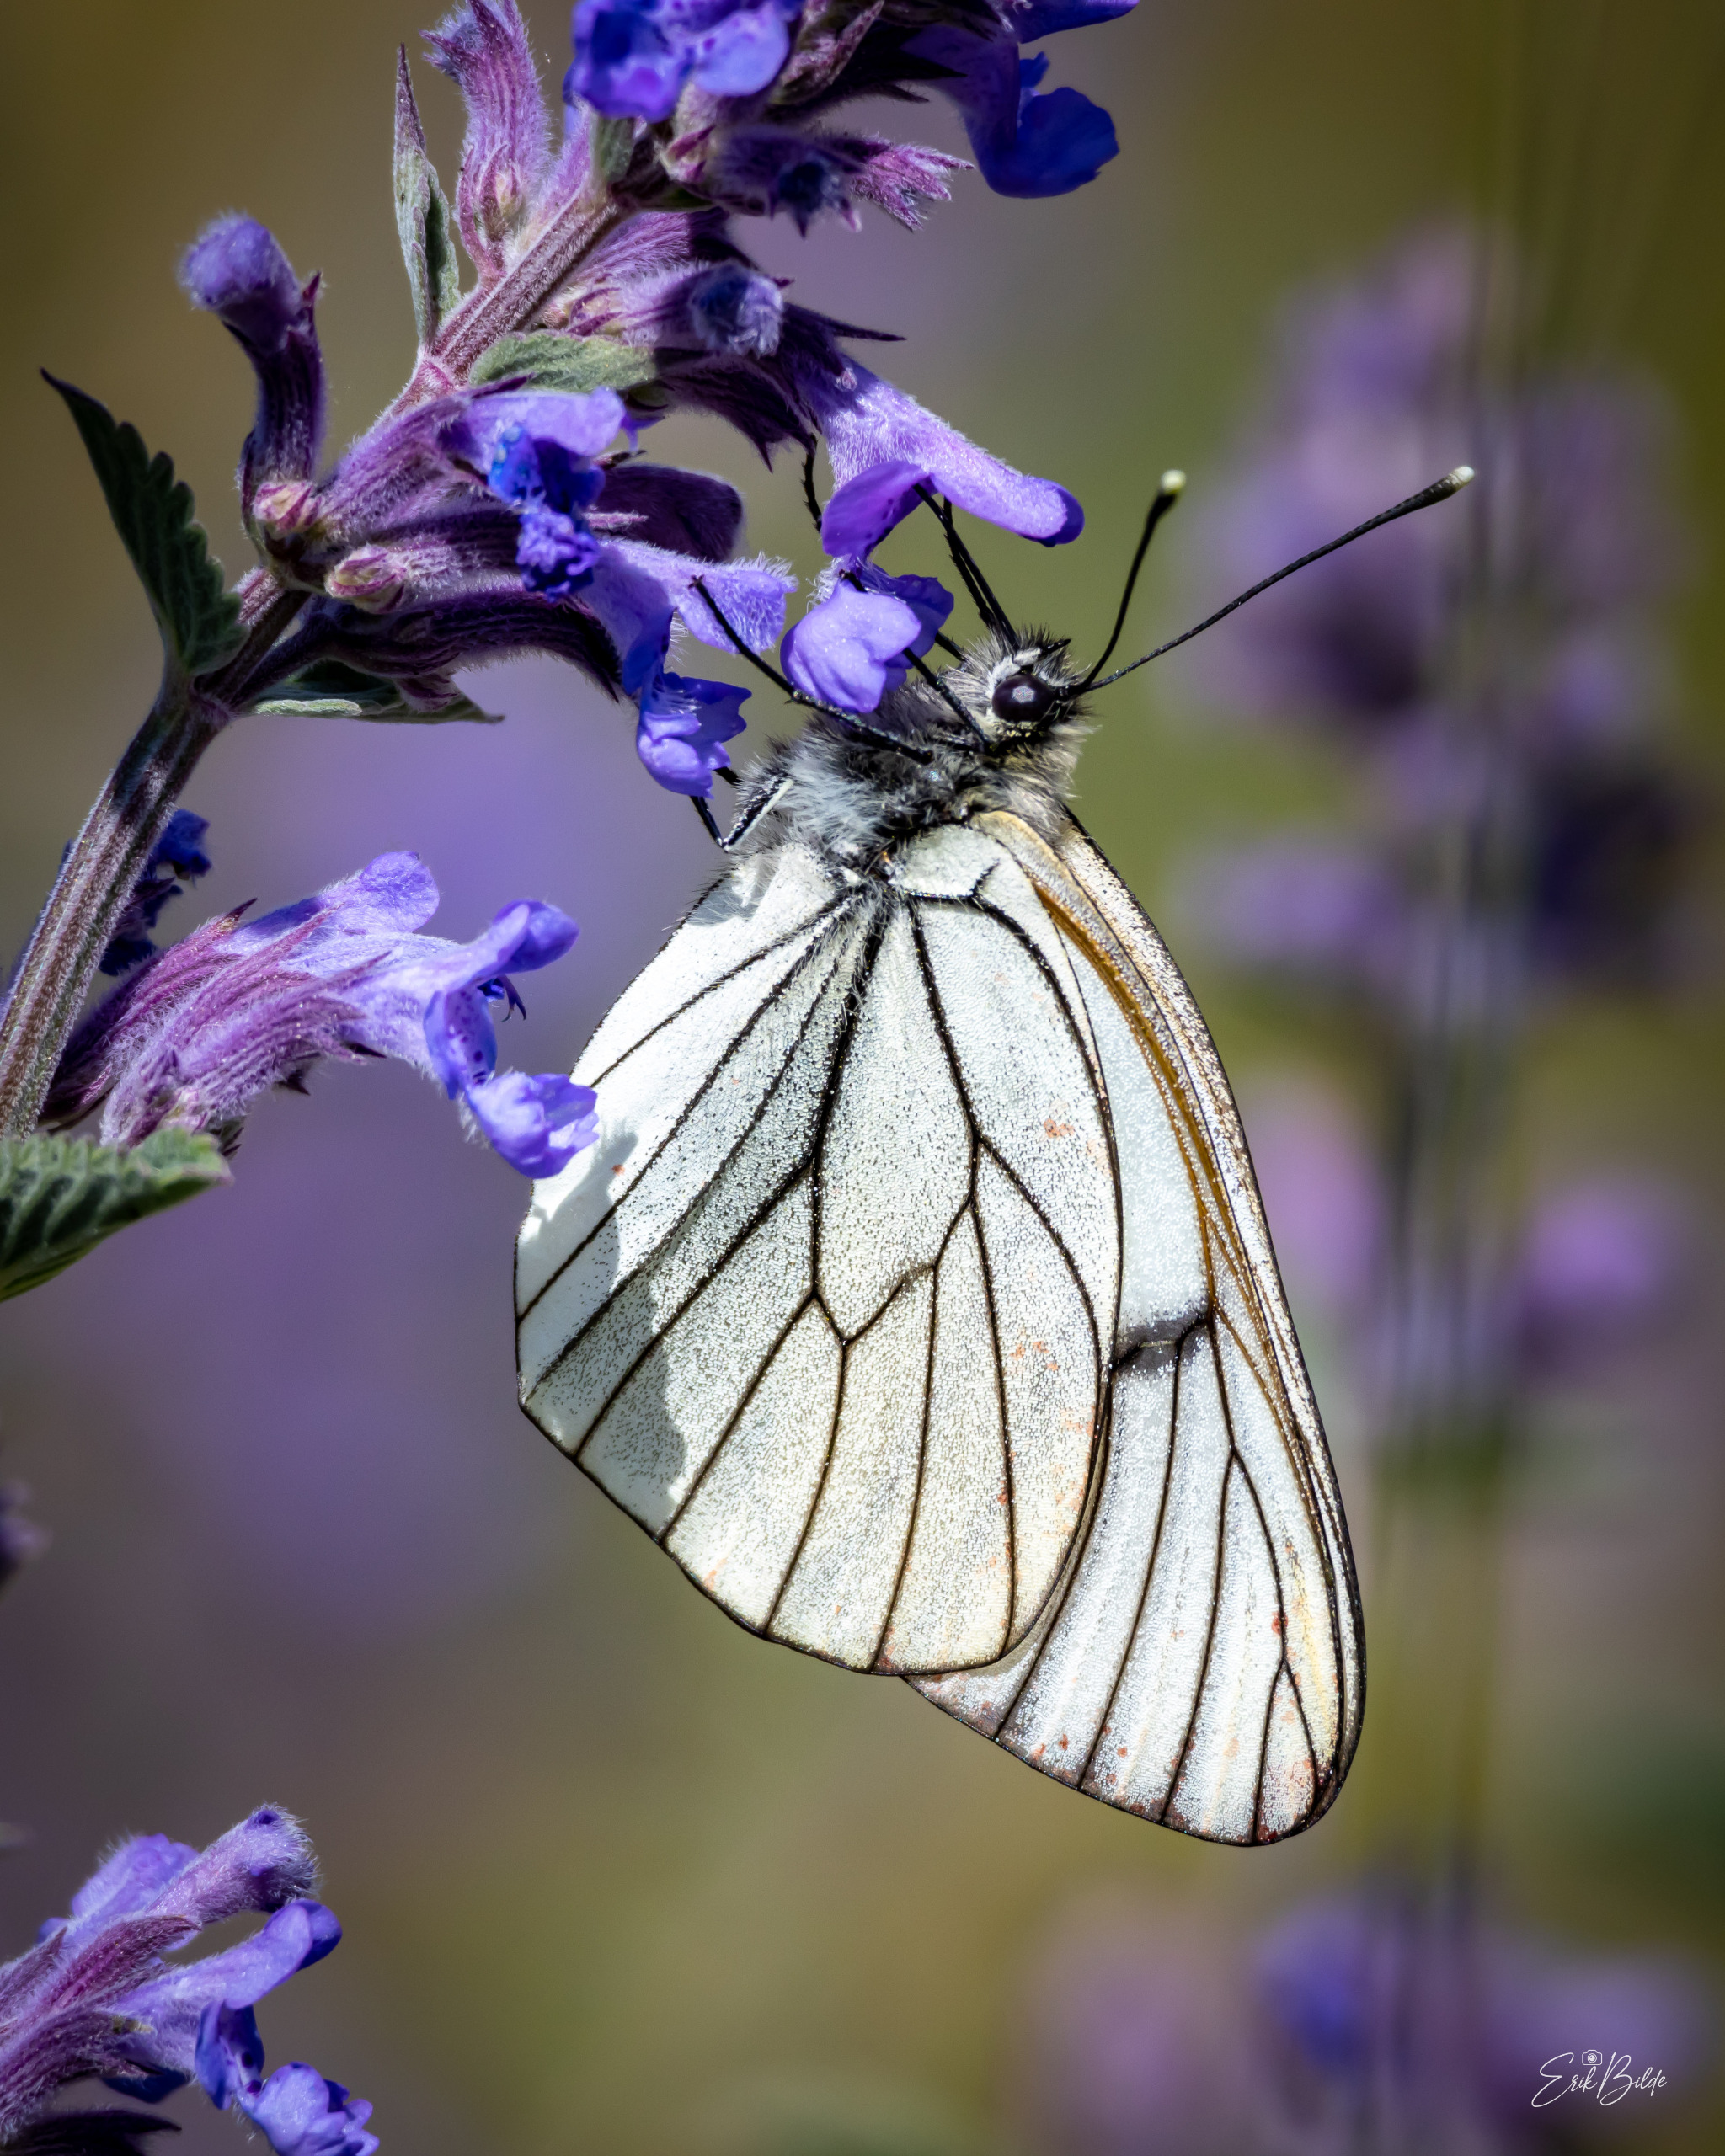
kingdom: Animalia
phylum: Arthropoda
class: Insecta
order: Lepidoptera
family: Pieridae
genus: Aporia
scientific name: Aporia crataegi
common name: Sortåret hvidvinge
